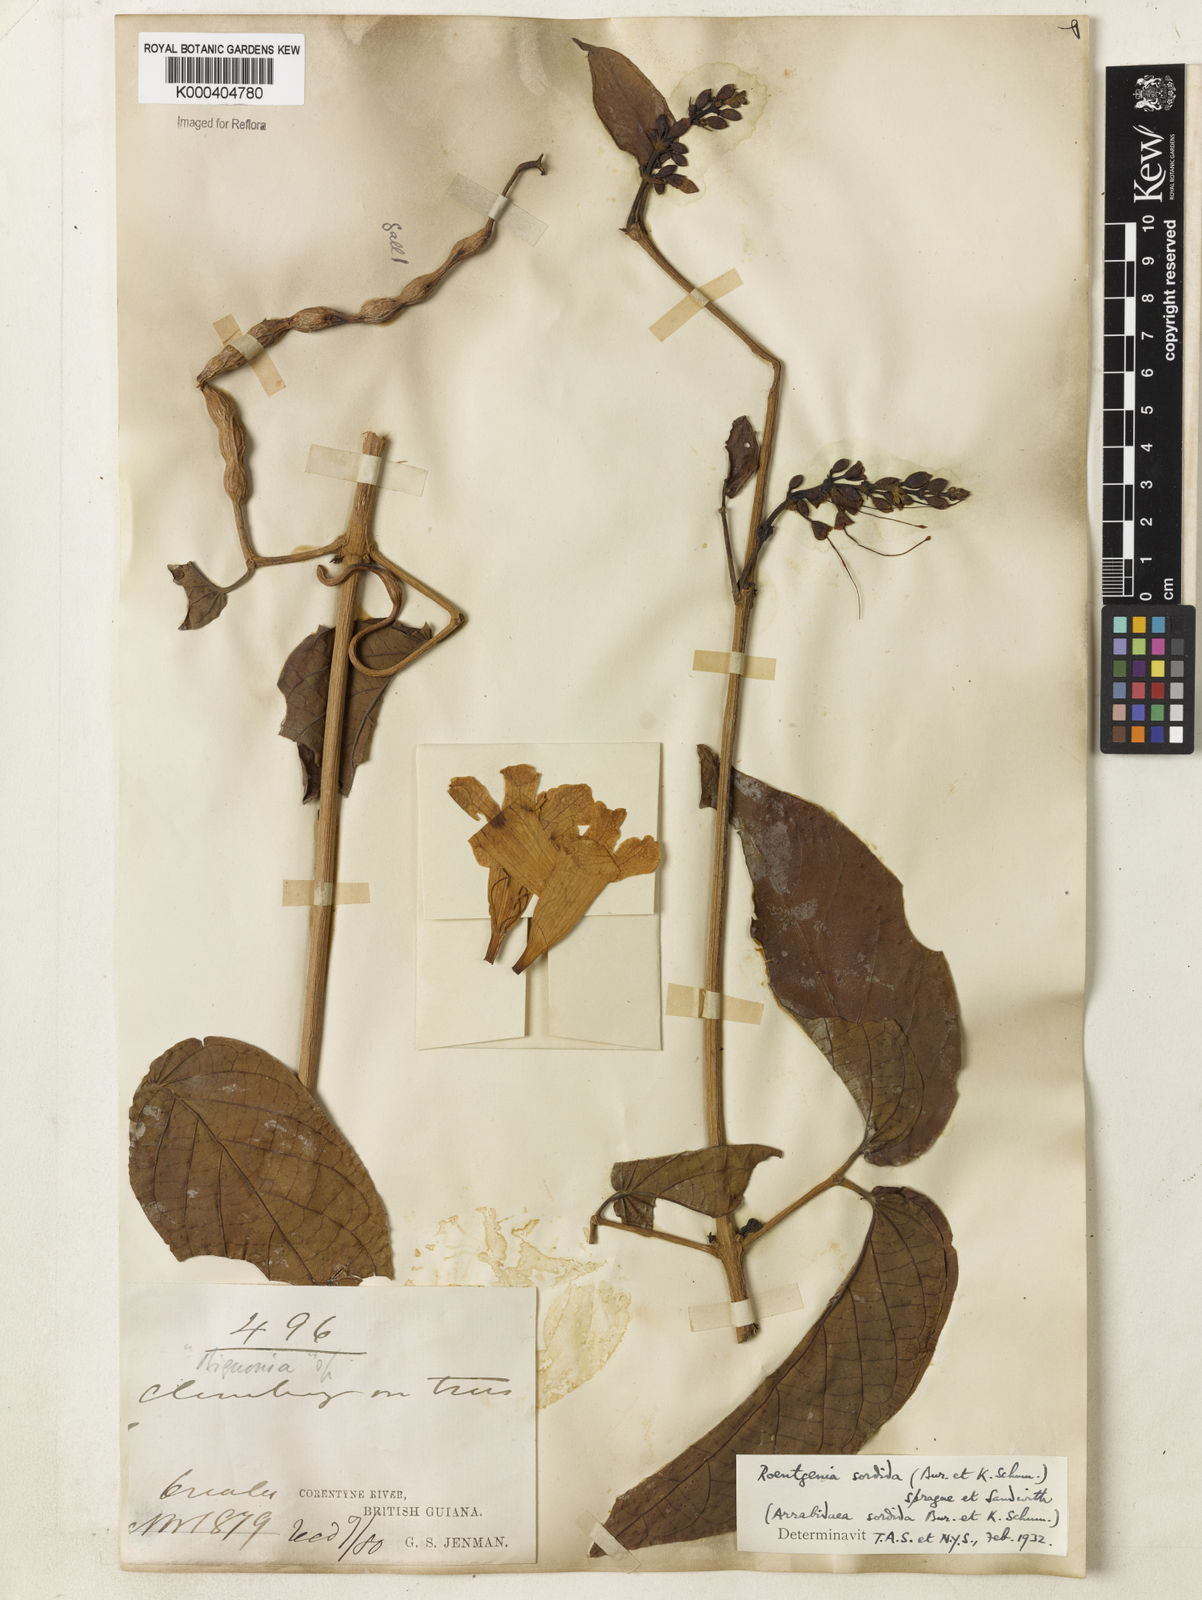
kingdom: Plantae
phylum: Tracheophyta
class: Magnoliopsida
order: Lamiales
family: Bignoniaceae
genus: Bignonia
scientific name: Bignonia sordida
